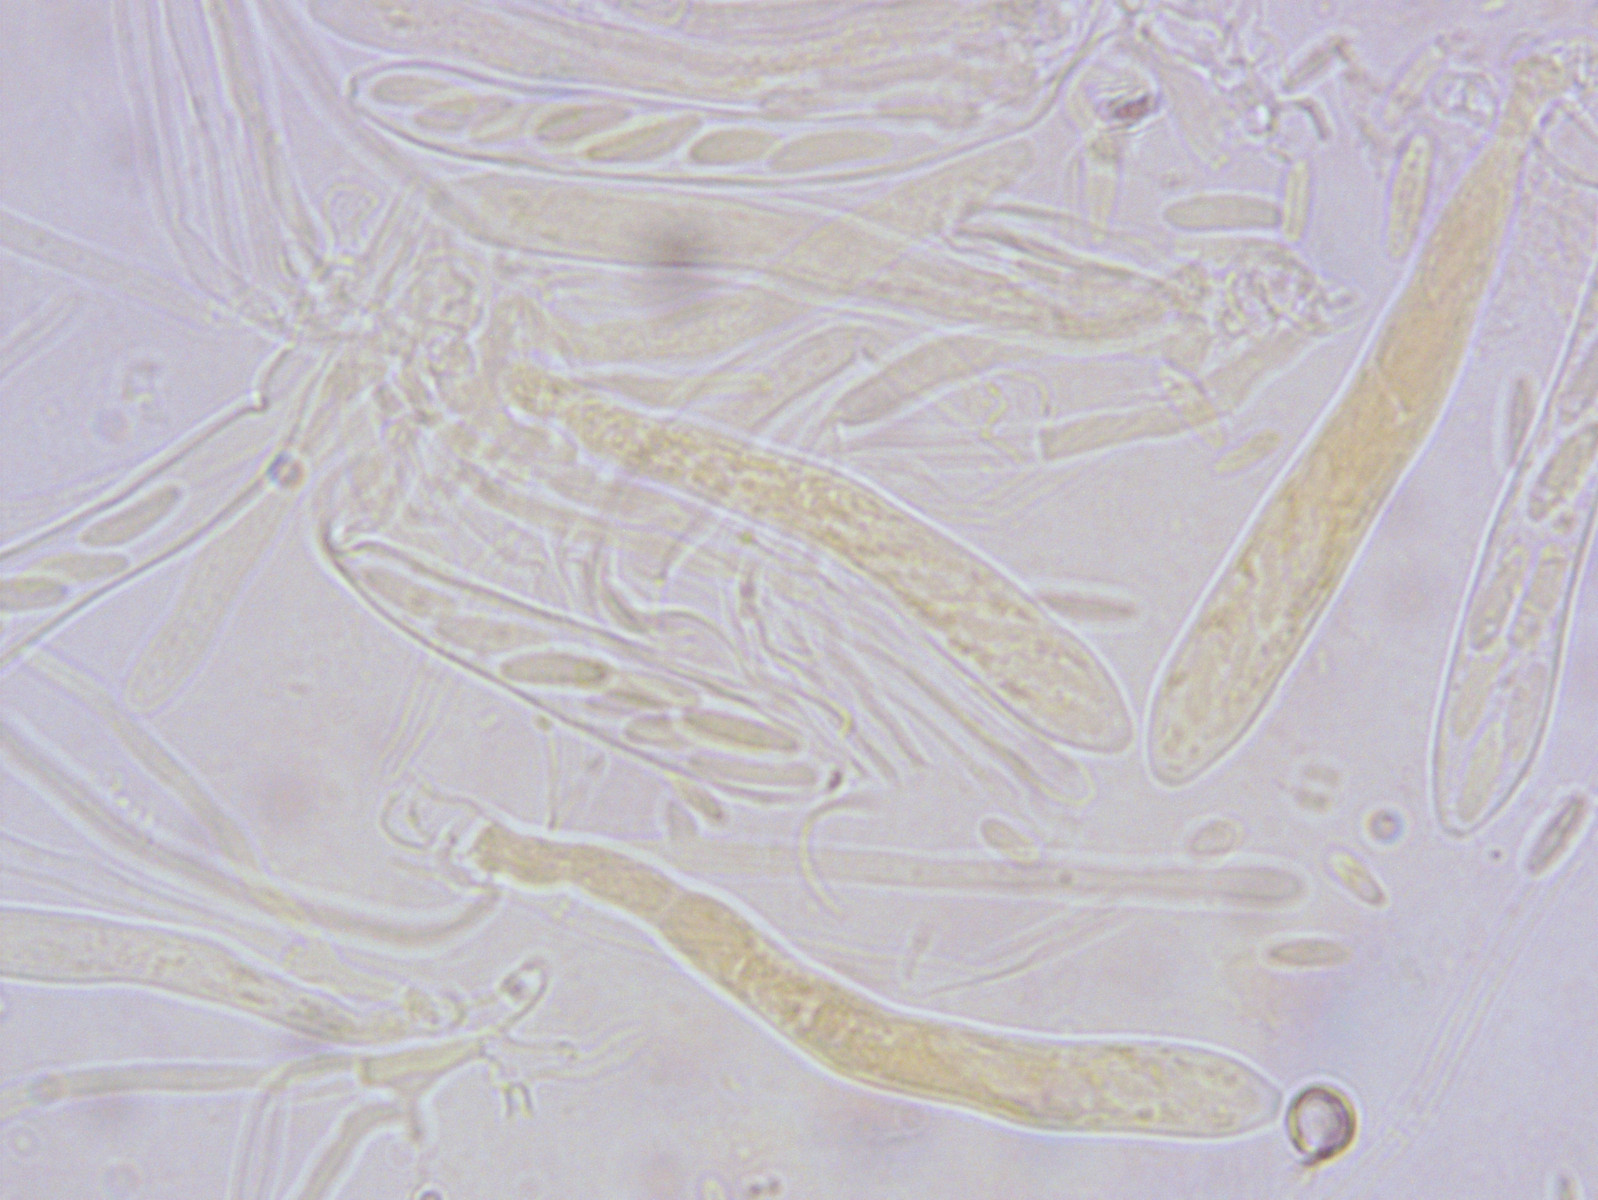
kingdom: Fungi
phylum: Ascomycota
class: Leotiomycetes
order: Helotiales
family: Mollisiaceae
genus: Mollisia
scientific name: Mollisia melaleuca
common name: sorthvid gråskive
